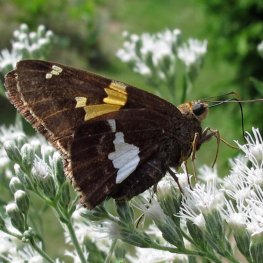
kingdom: Animalia
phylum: Arthropoda
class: Insecta
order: Lepidoptera
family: Hesperiidae
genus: Epargyreus
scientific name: Epargyreus clarus
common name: Silver-spotted Skipper
